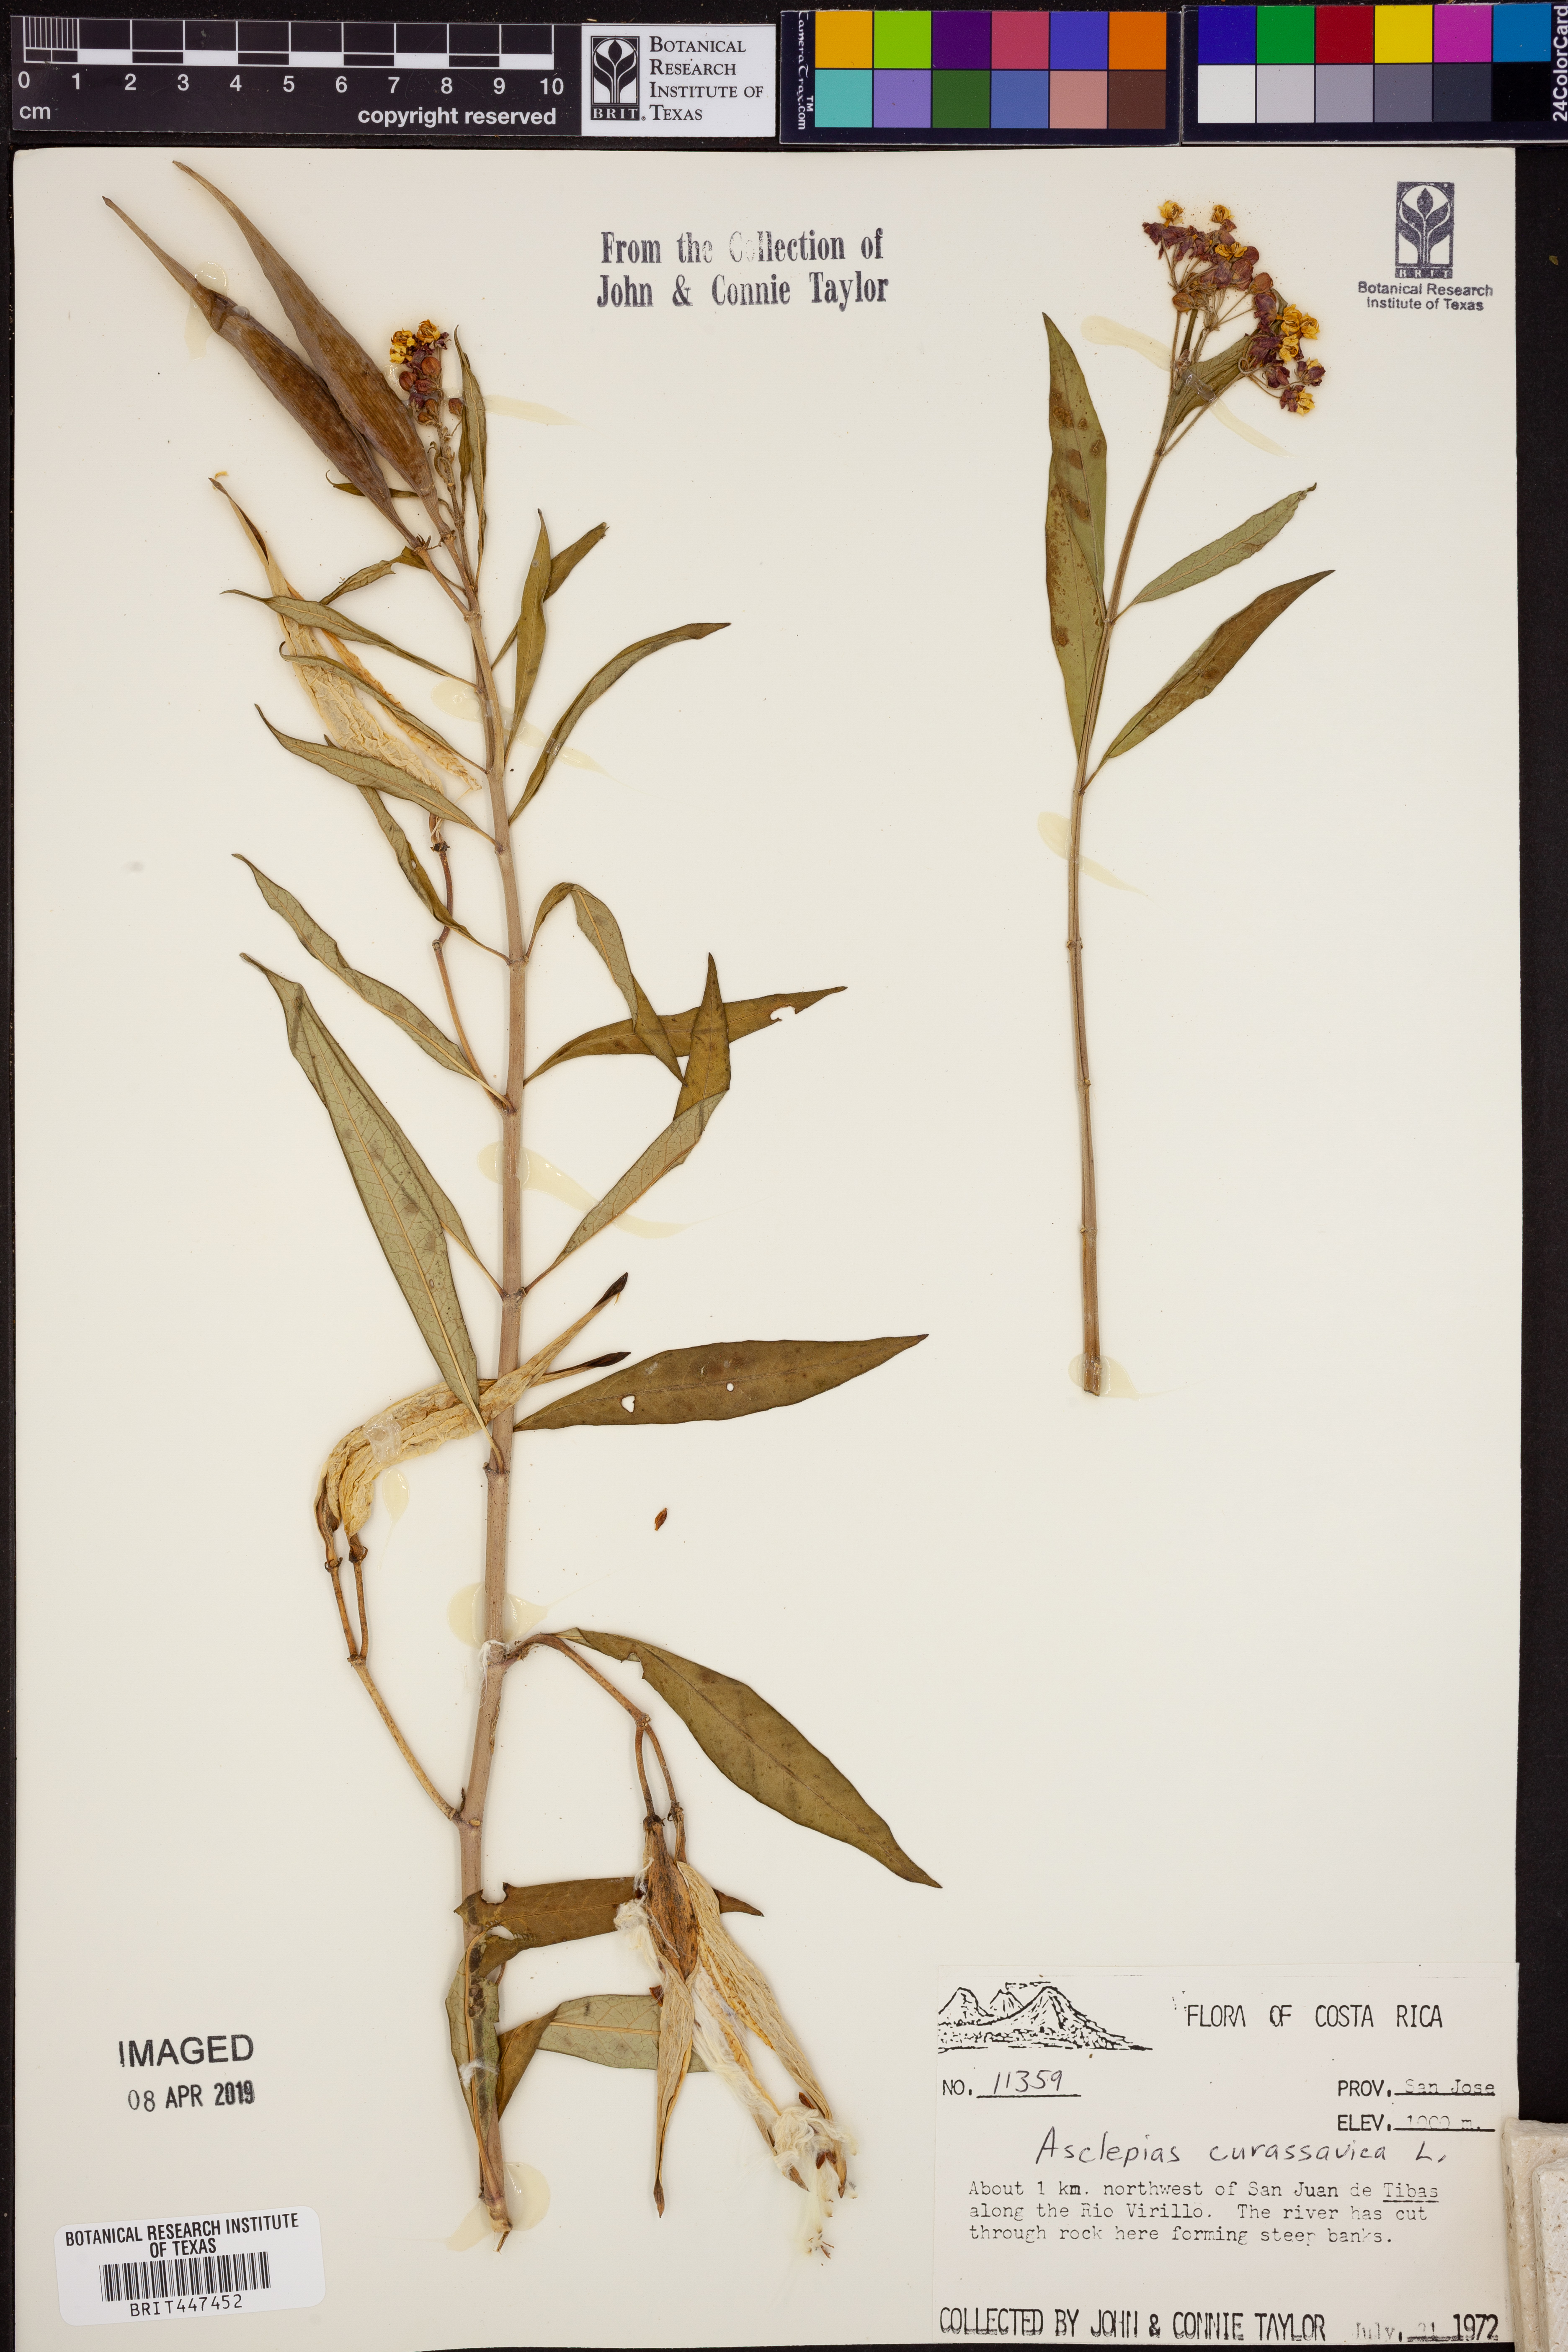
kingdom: Plantae
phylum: Tracheophyta
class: Magnoliopsida
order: Gentianales
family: Apocynaceae
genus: Asclepias
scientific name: Asclepias curassavica
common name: Bloodflower
